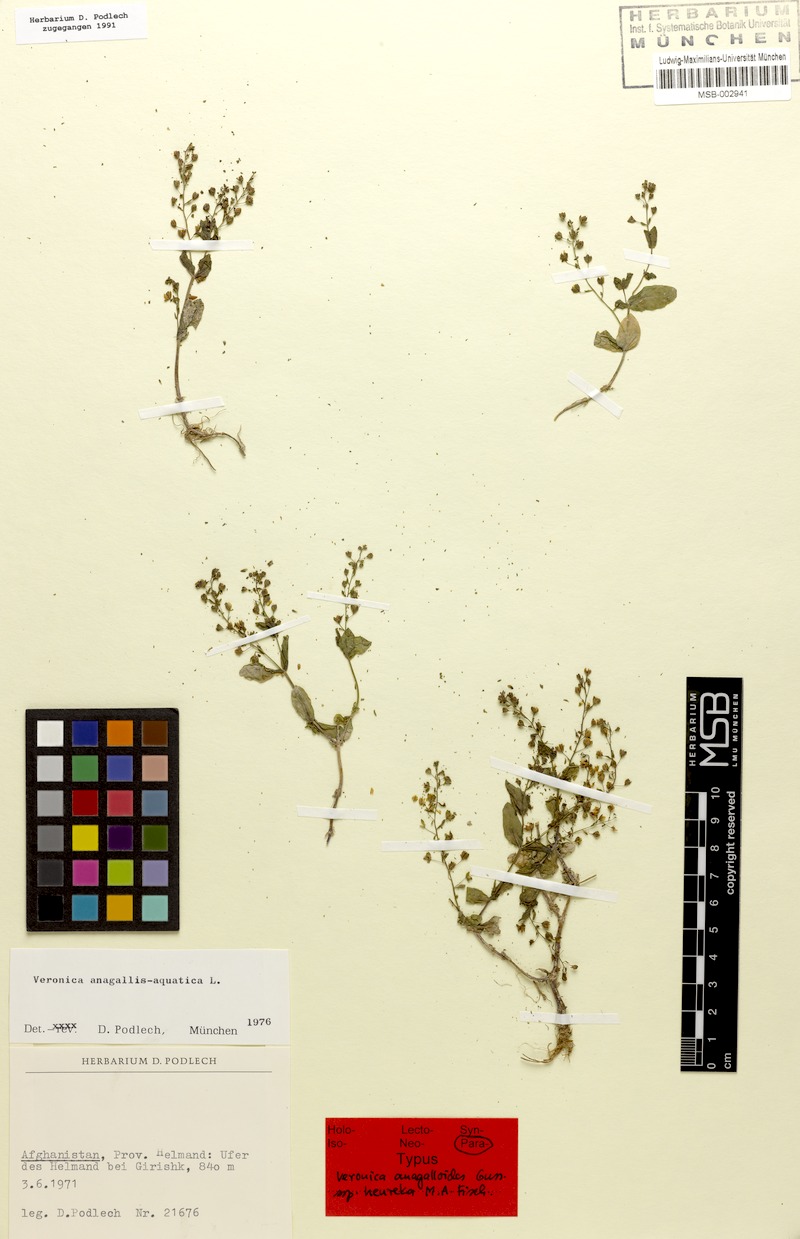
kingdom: Plantae
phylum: Tracheophyta
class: Magnoliopsida
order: Lamiales
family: Plantaginaceae
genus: Veronica
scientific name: Veronica heureka
